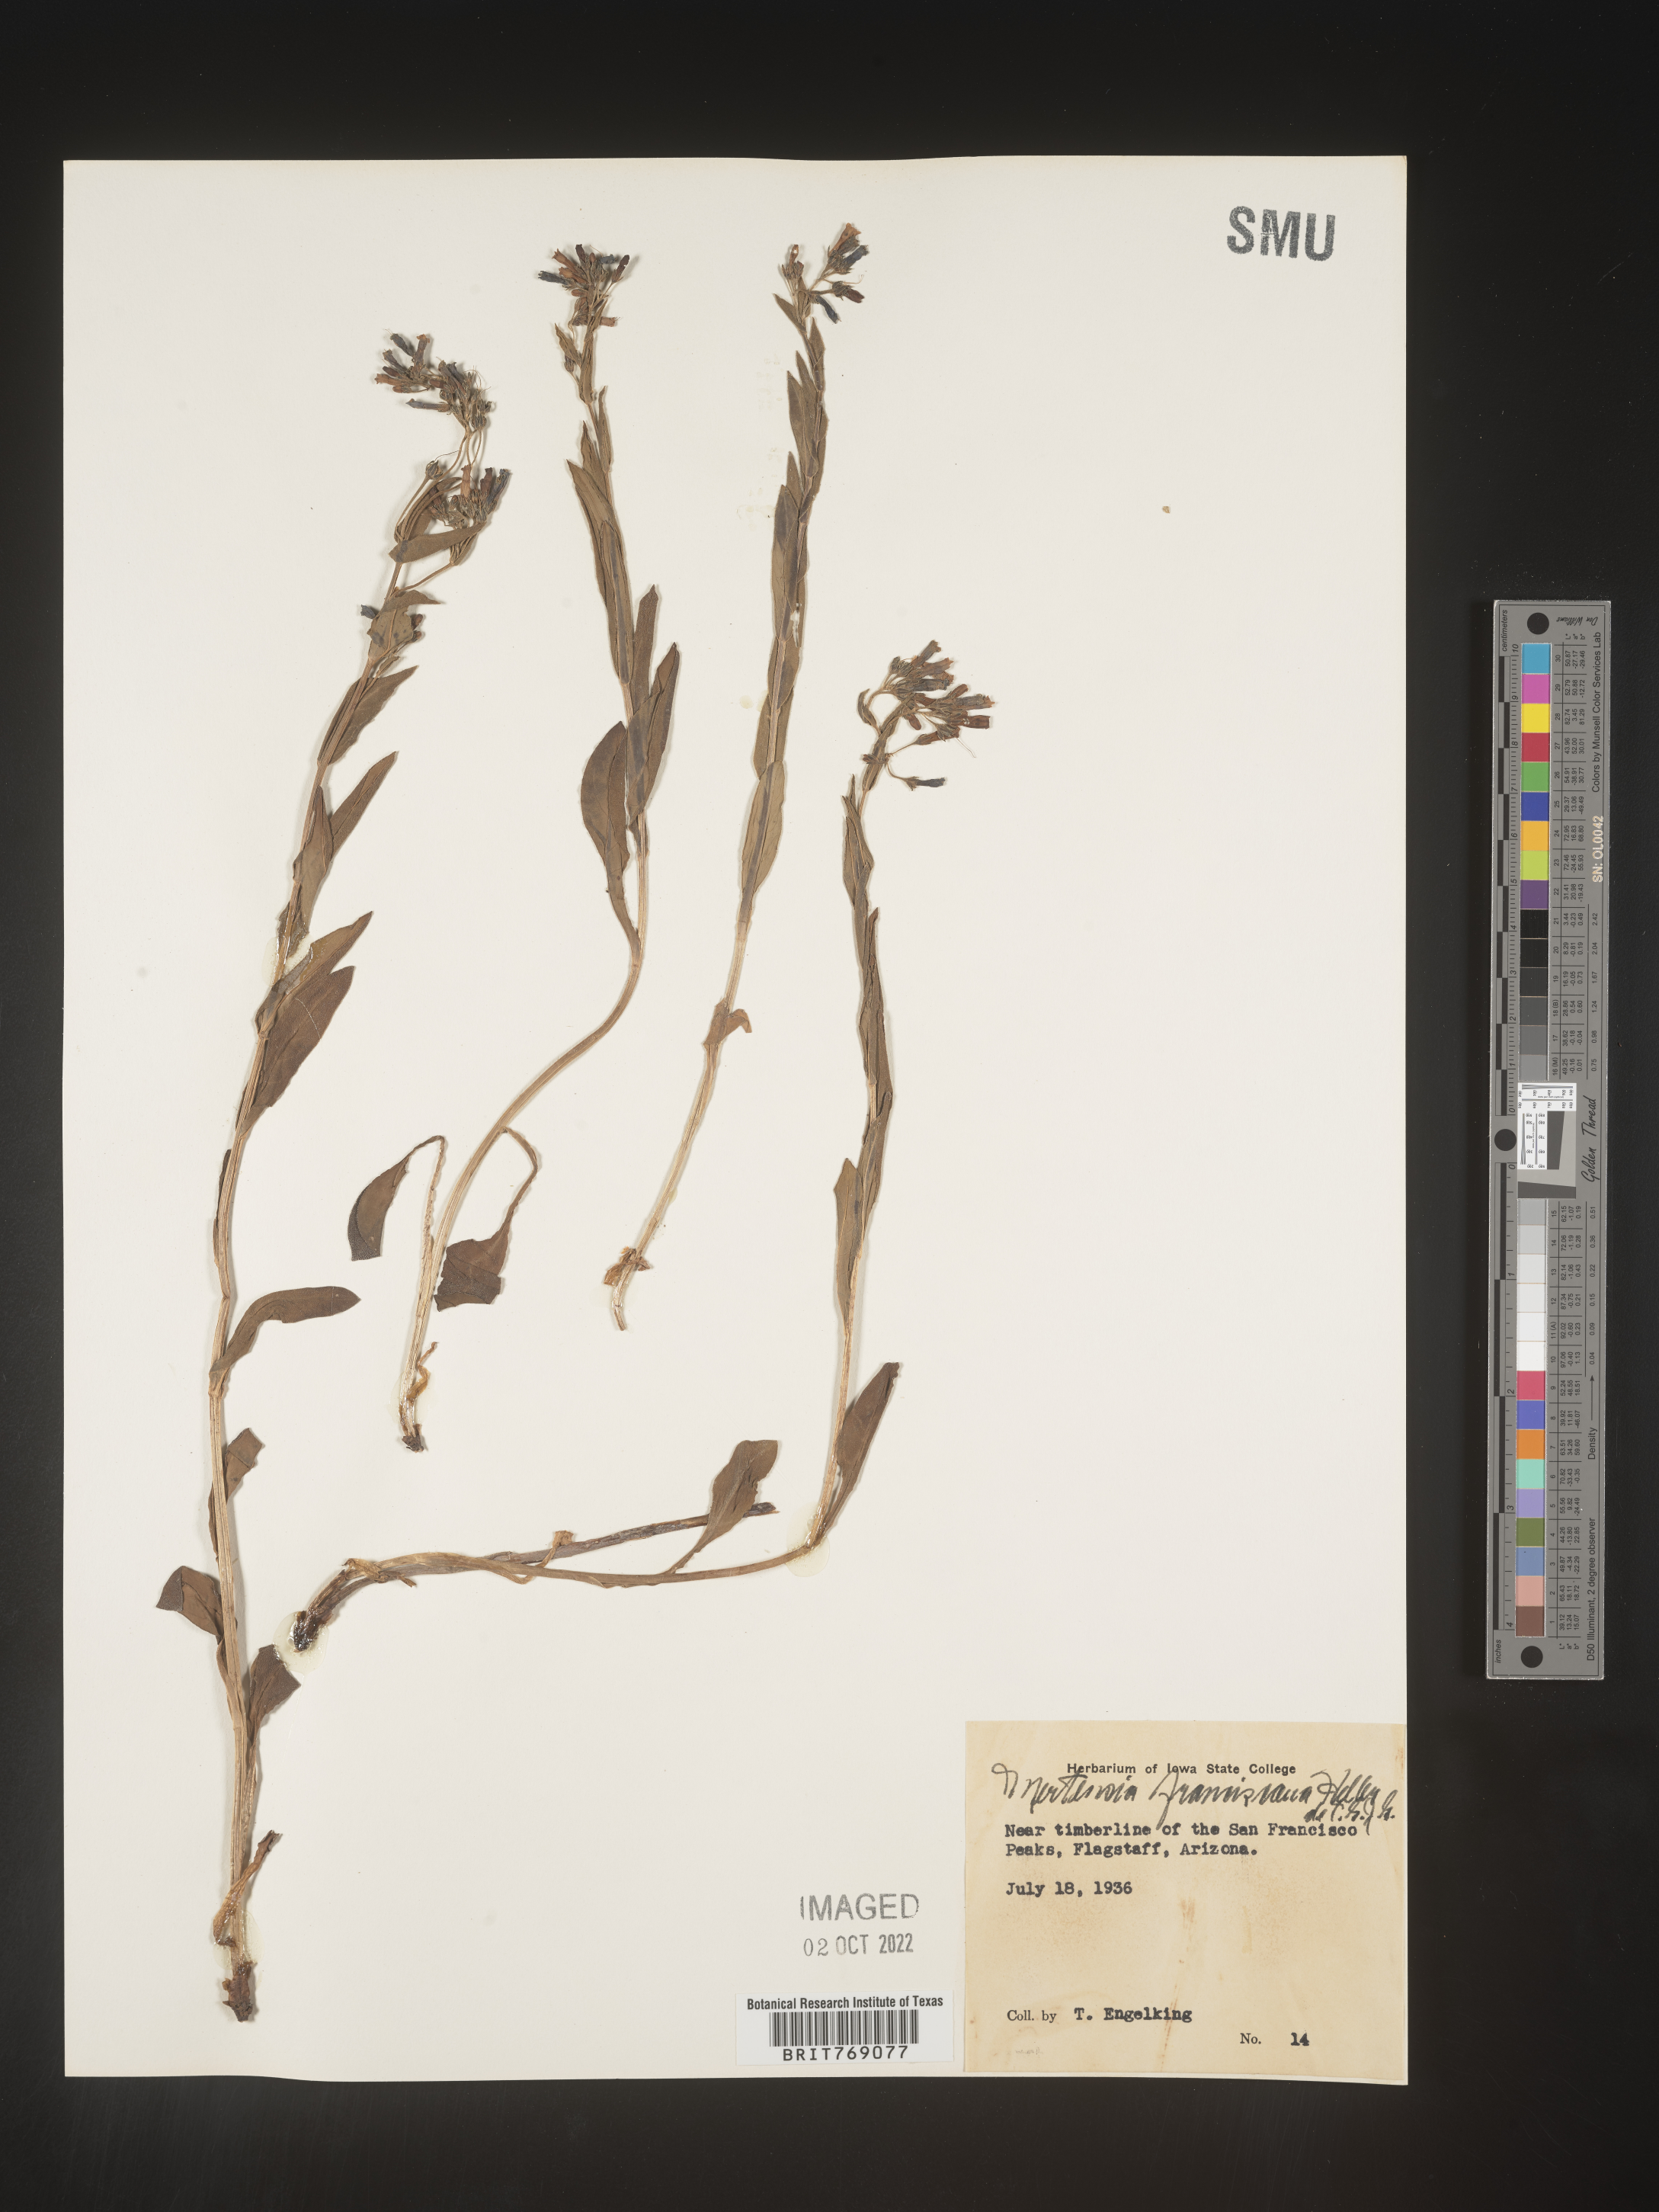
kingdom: Plantae
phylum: Tracheophyta
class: Magnoliopsida
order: Boraginales
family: Boraginaceae
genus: Mertensia
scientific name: Mertensia
